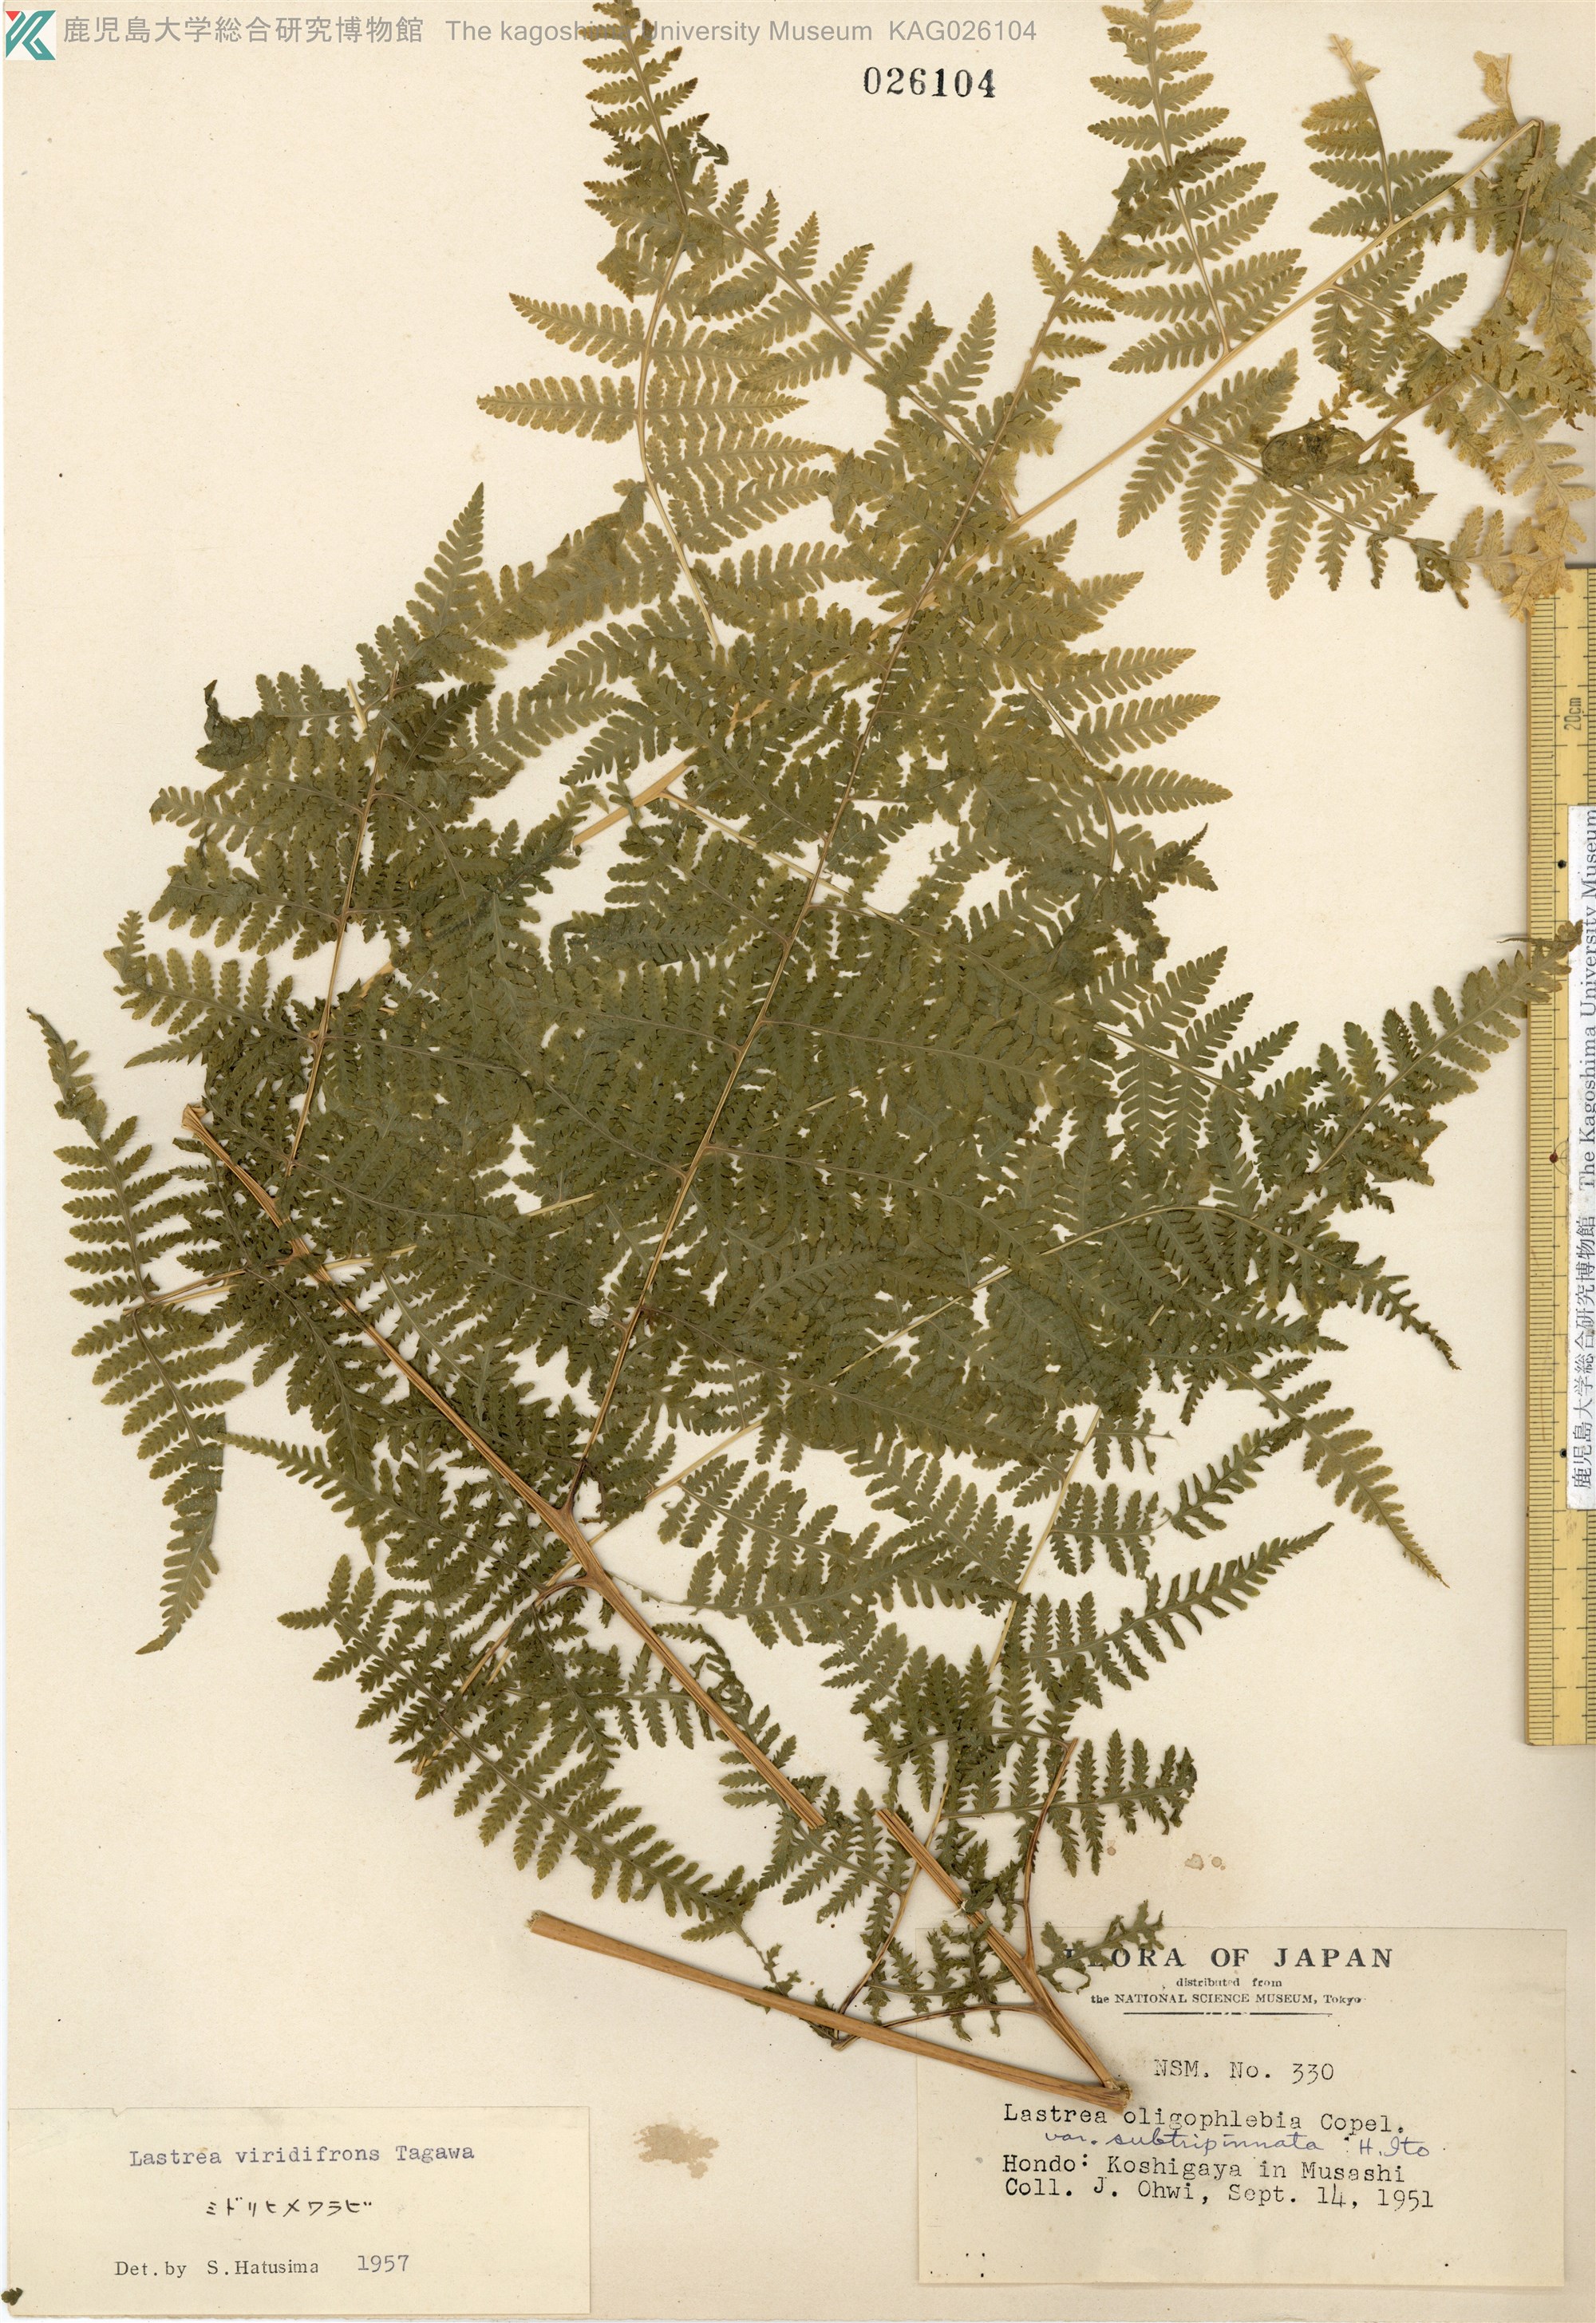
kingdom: Plantae
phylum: Tracheophyta
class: Polypodiopsida
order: Polypodiales
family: Thelypteridaceae
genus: Macrothelypteris
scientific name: Macrothelypteris viridifrons
